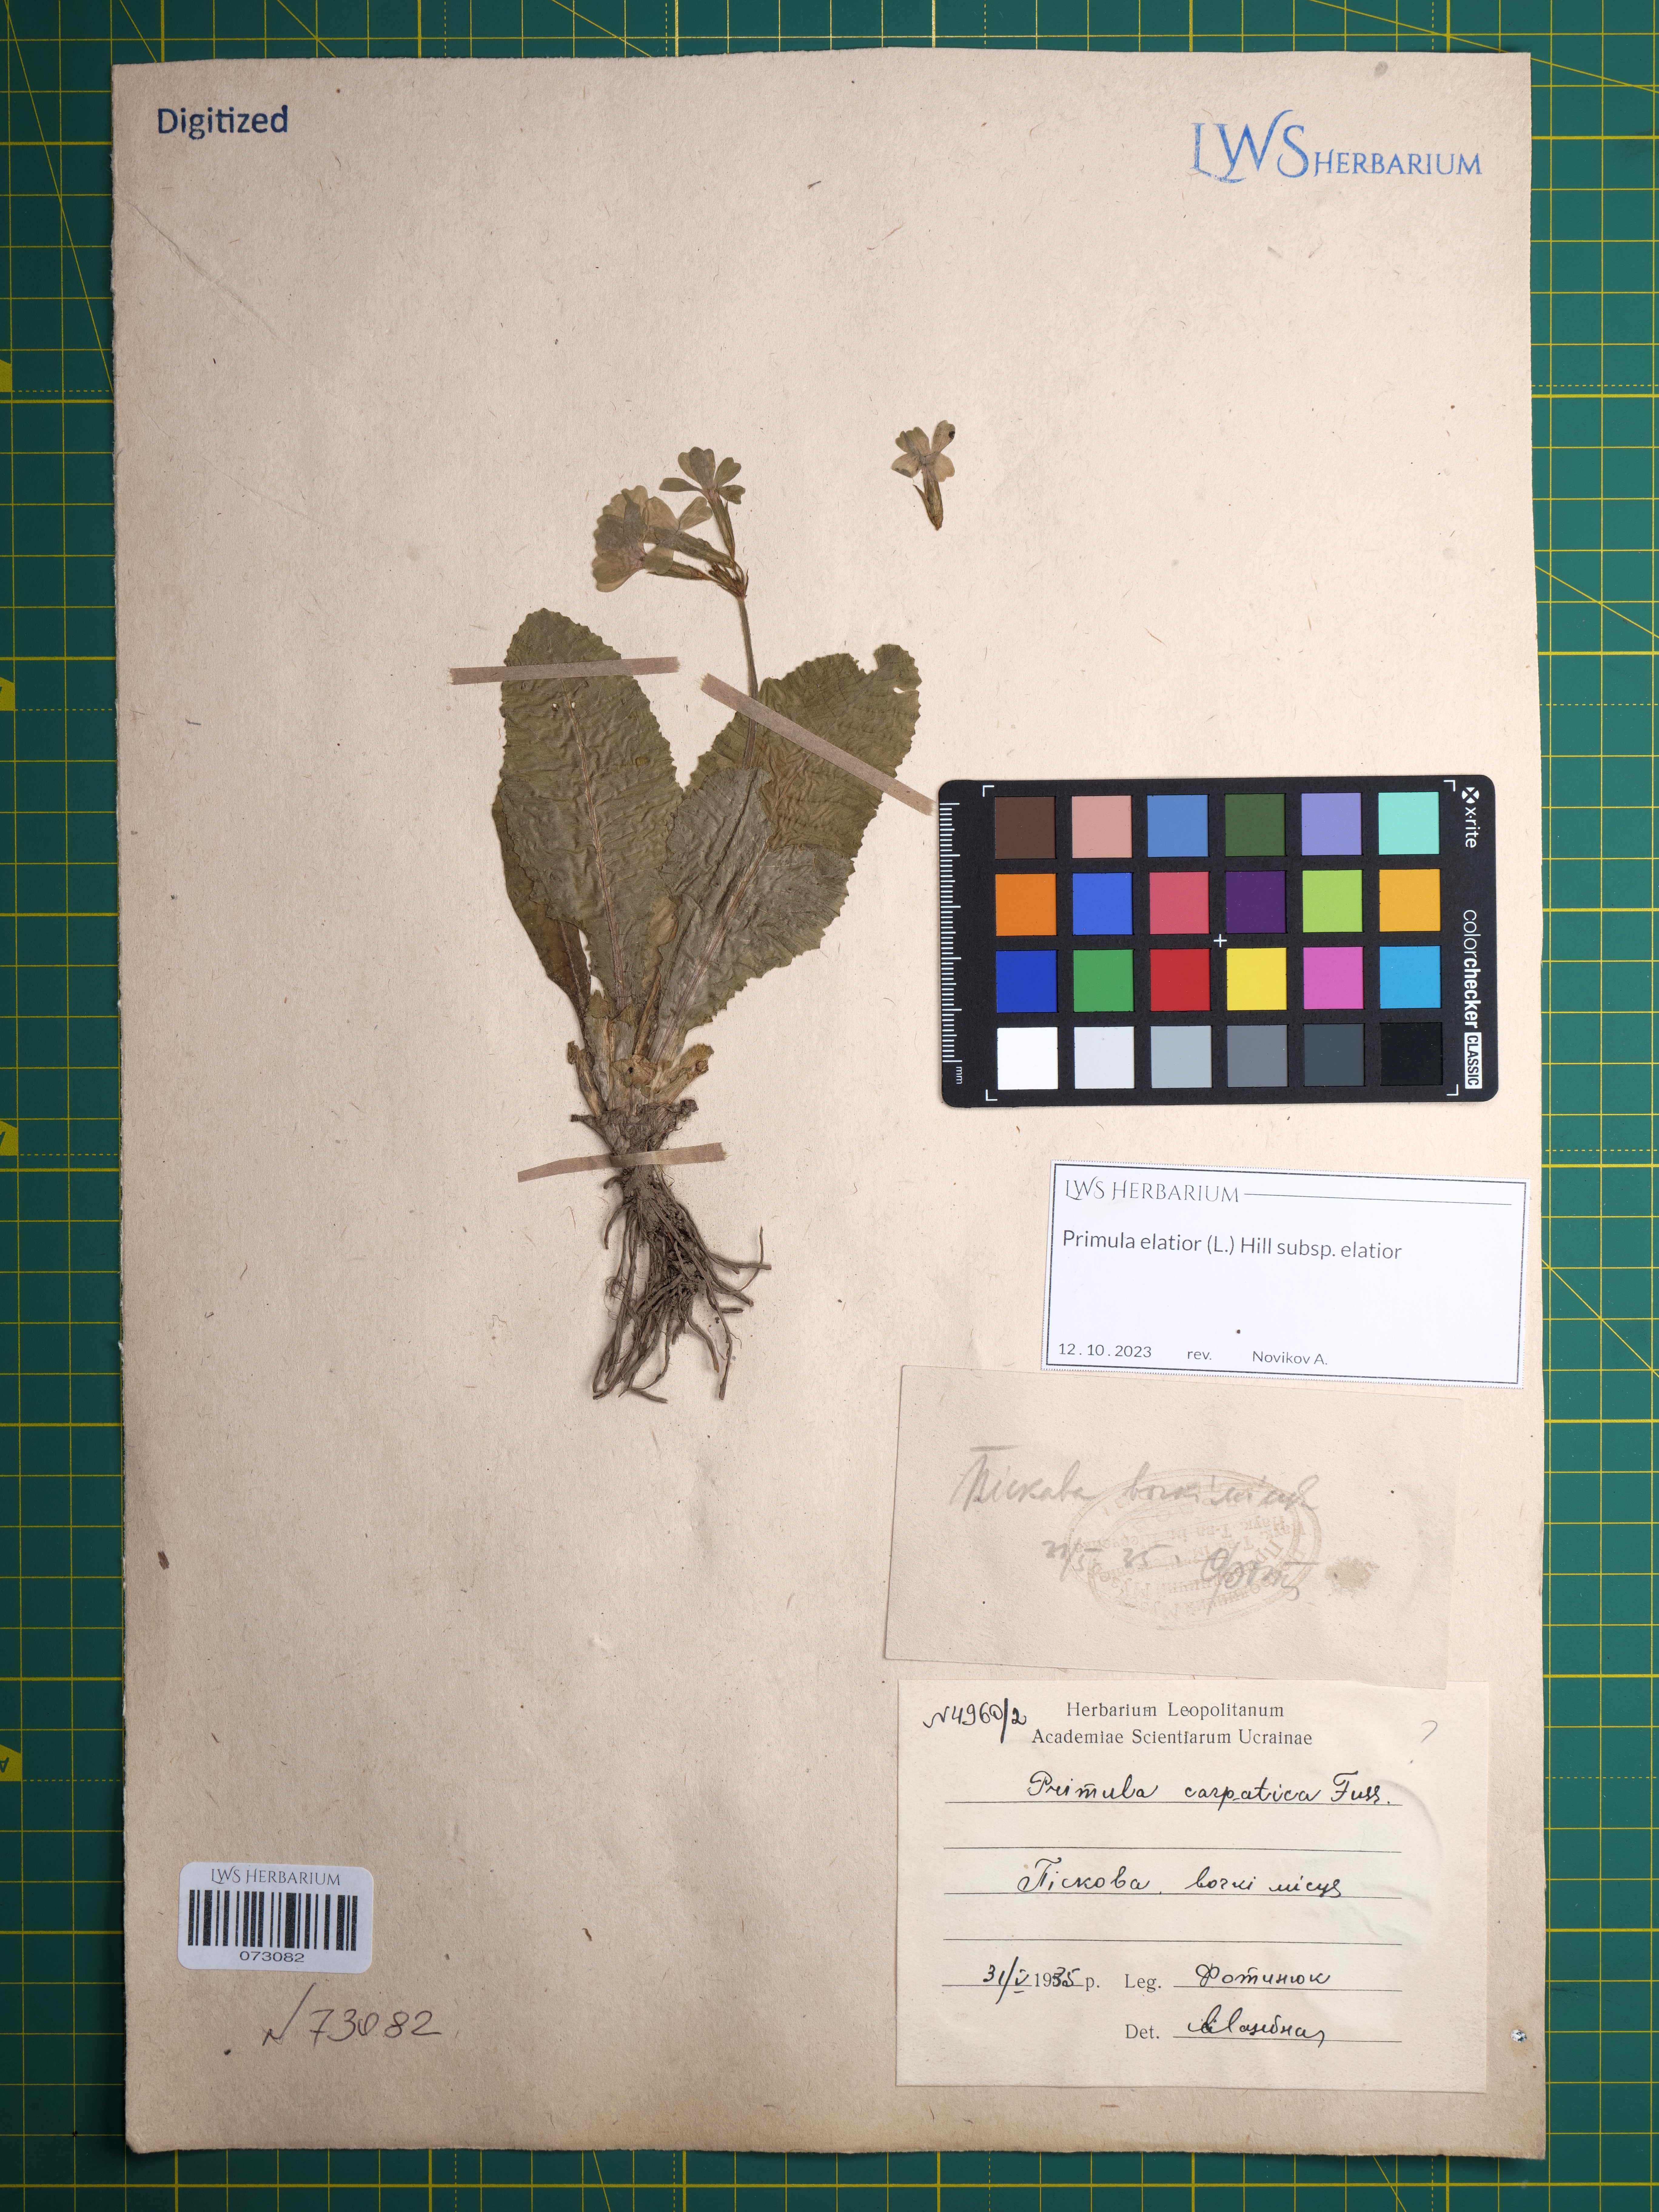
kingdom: Plantae
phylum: Tracheophyta
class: Magnoliopsida
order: Ericales
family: Primulaceae
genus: Primula
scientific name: Primula elatior
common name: Oxlip
